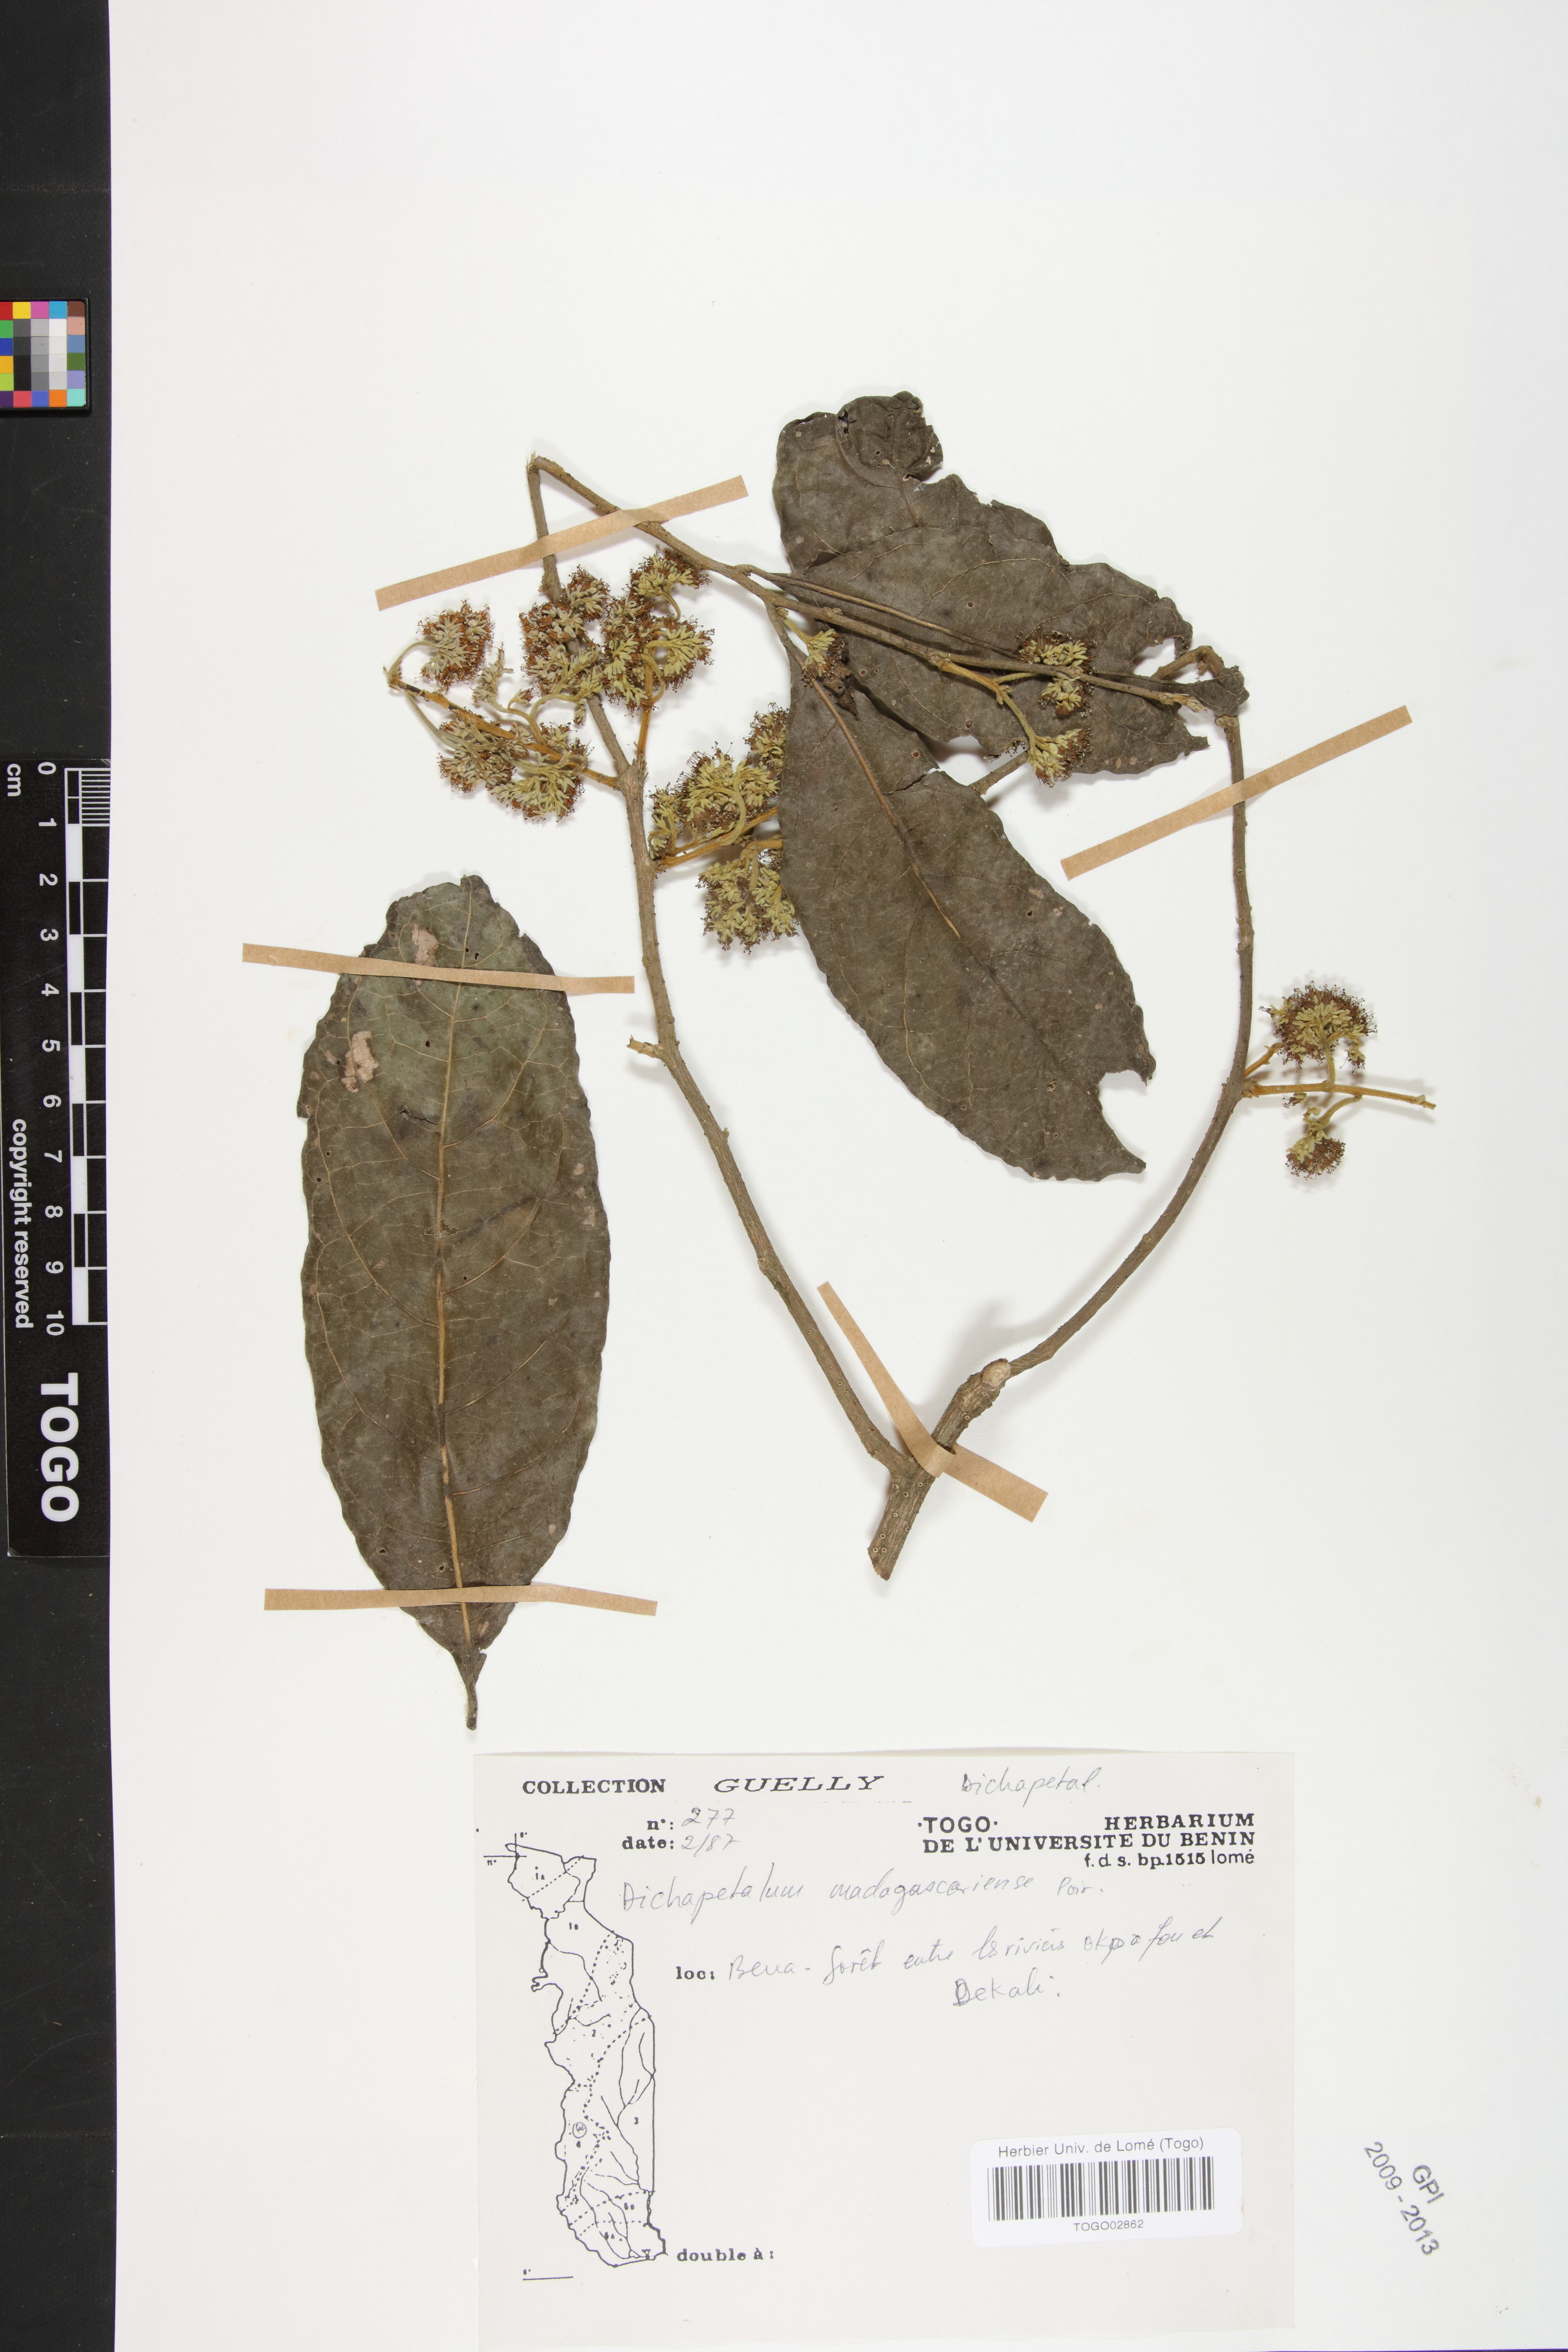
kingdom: Plantae
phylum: Tracheophyta
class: Magnoliopsida
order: Malpighiales
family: Dichapetalaceae
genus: Dichapetalum
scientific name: Dichapetalum madagascariense
